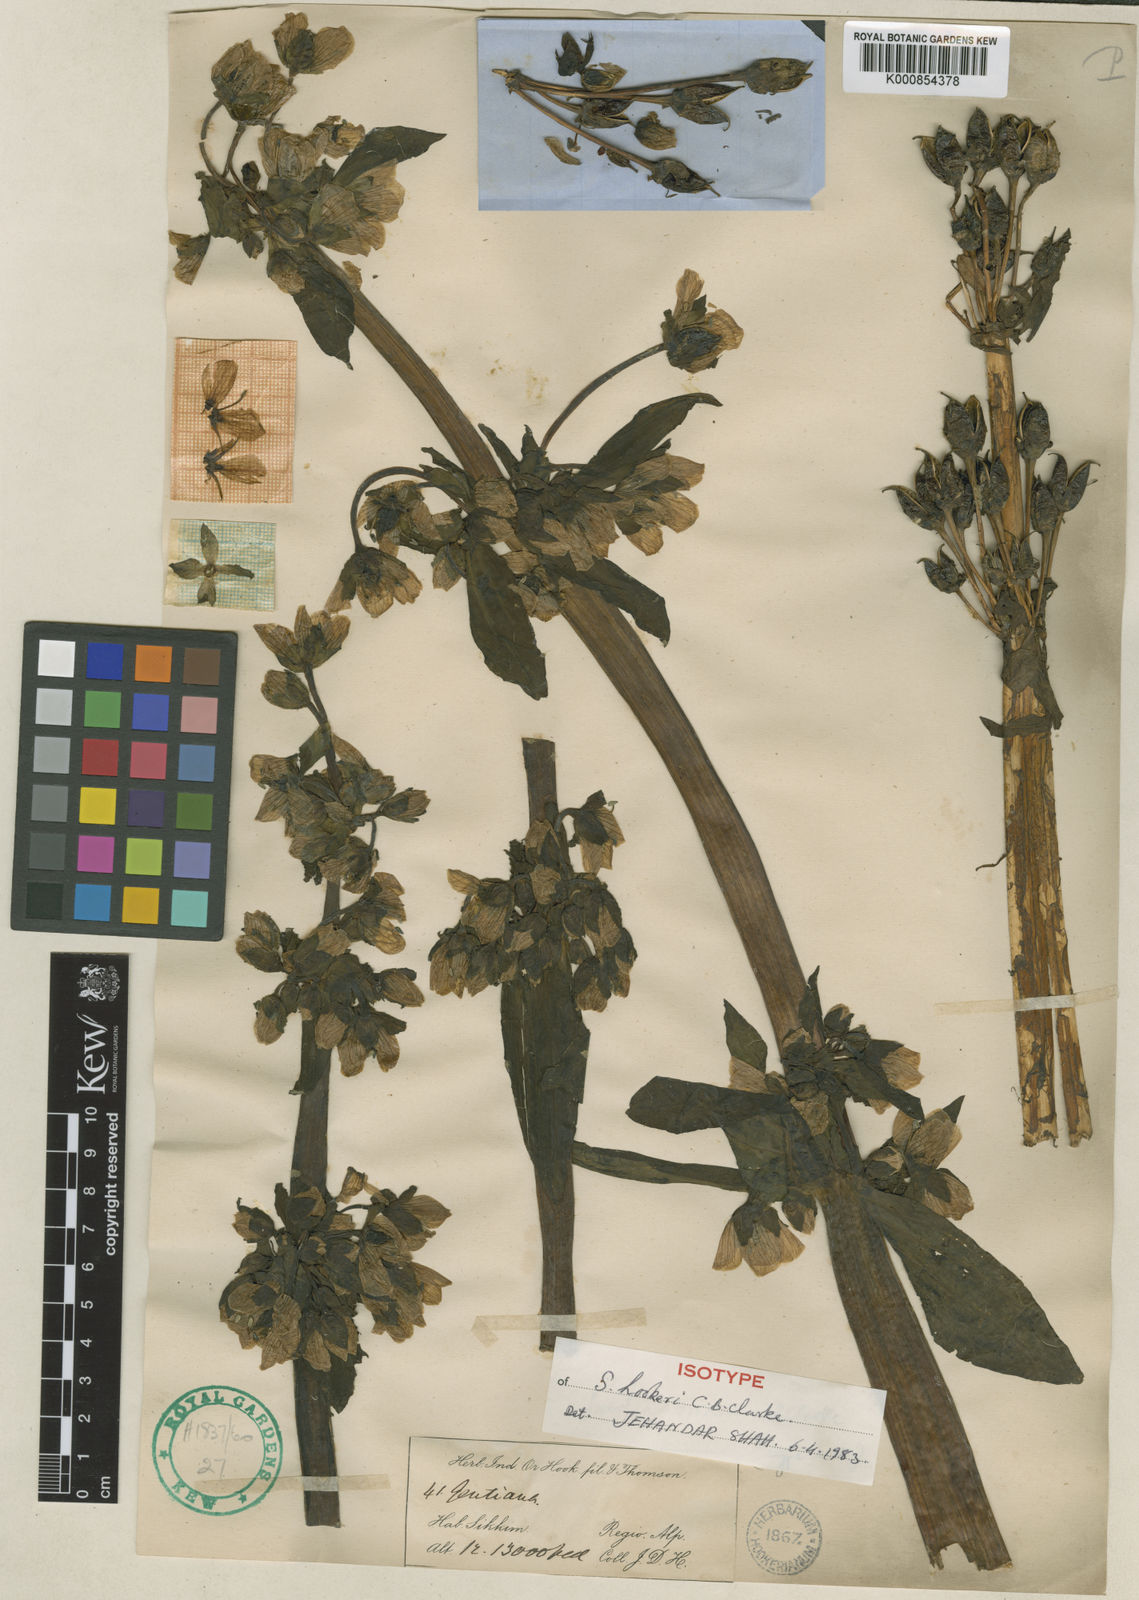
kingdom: Plantae
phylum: Tracheophyta
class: Magnoliopsida
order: Gentianales
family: Gentianaceae
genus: Swertia
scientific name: Swertia hookeri
